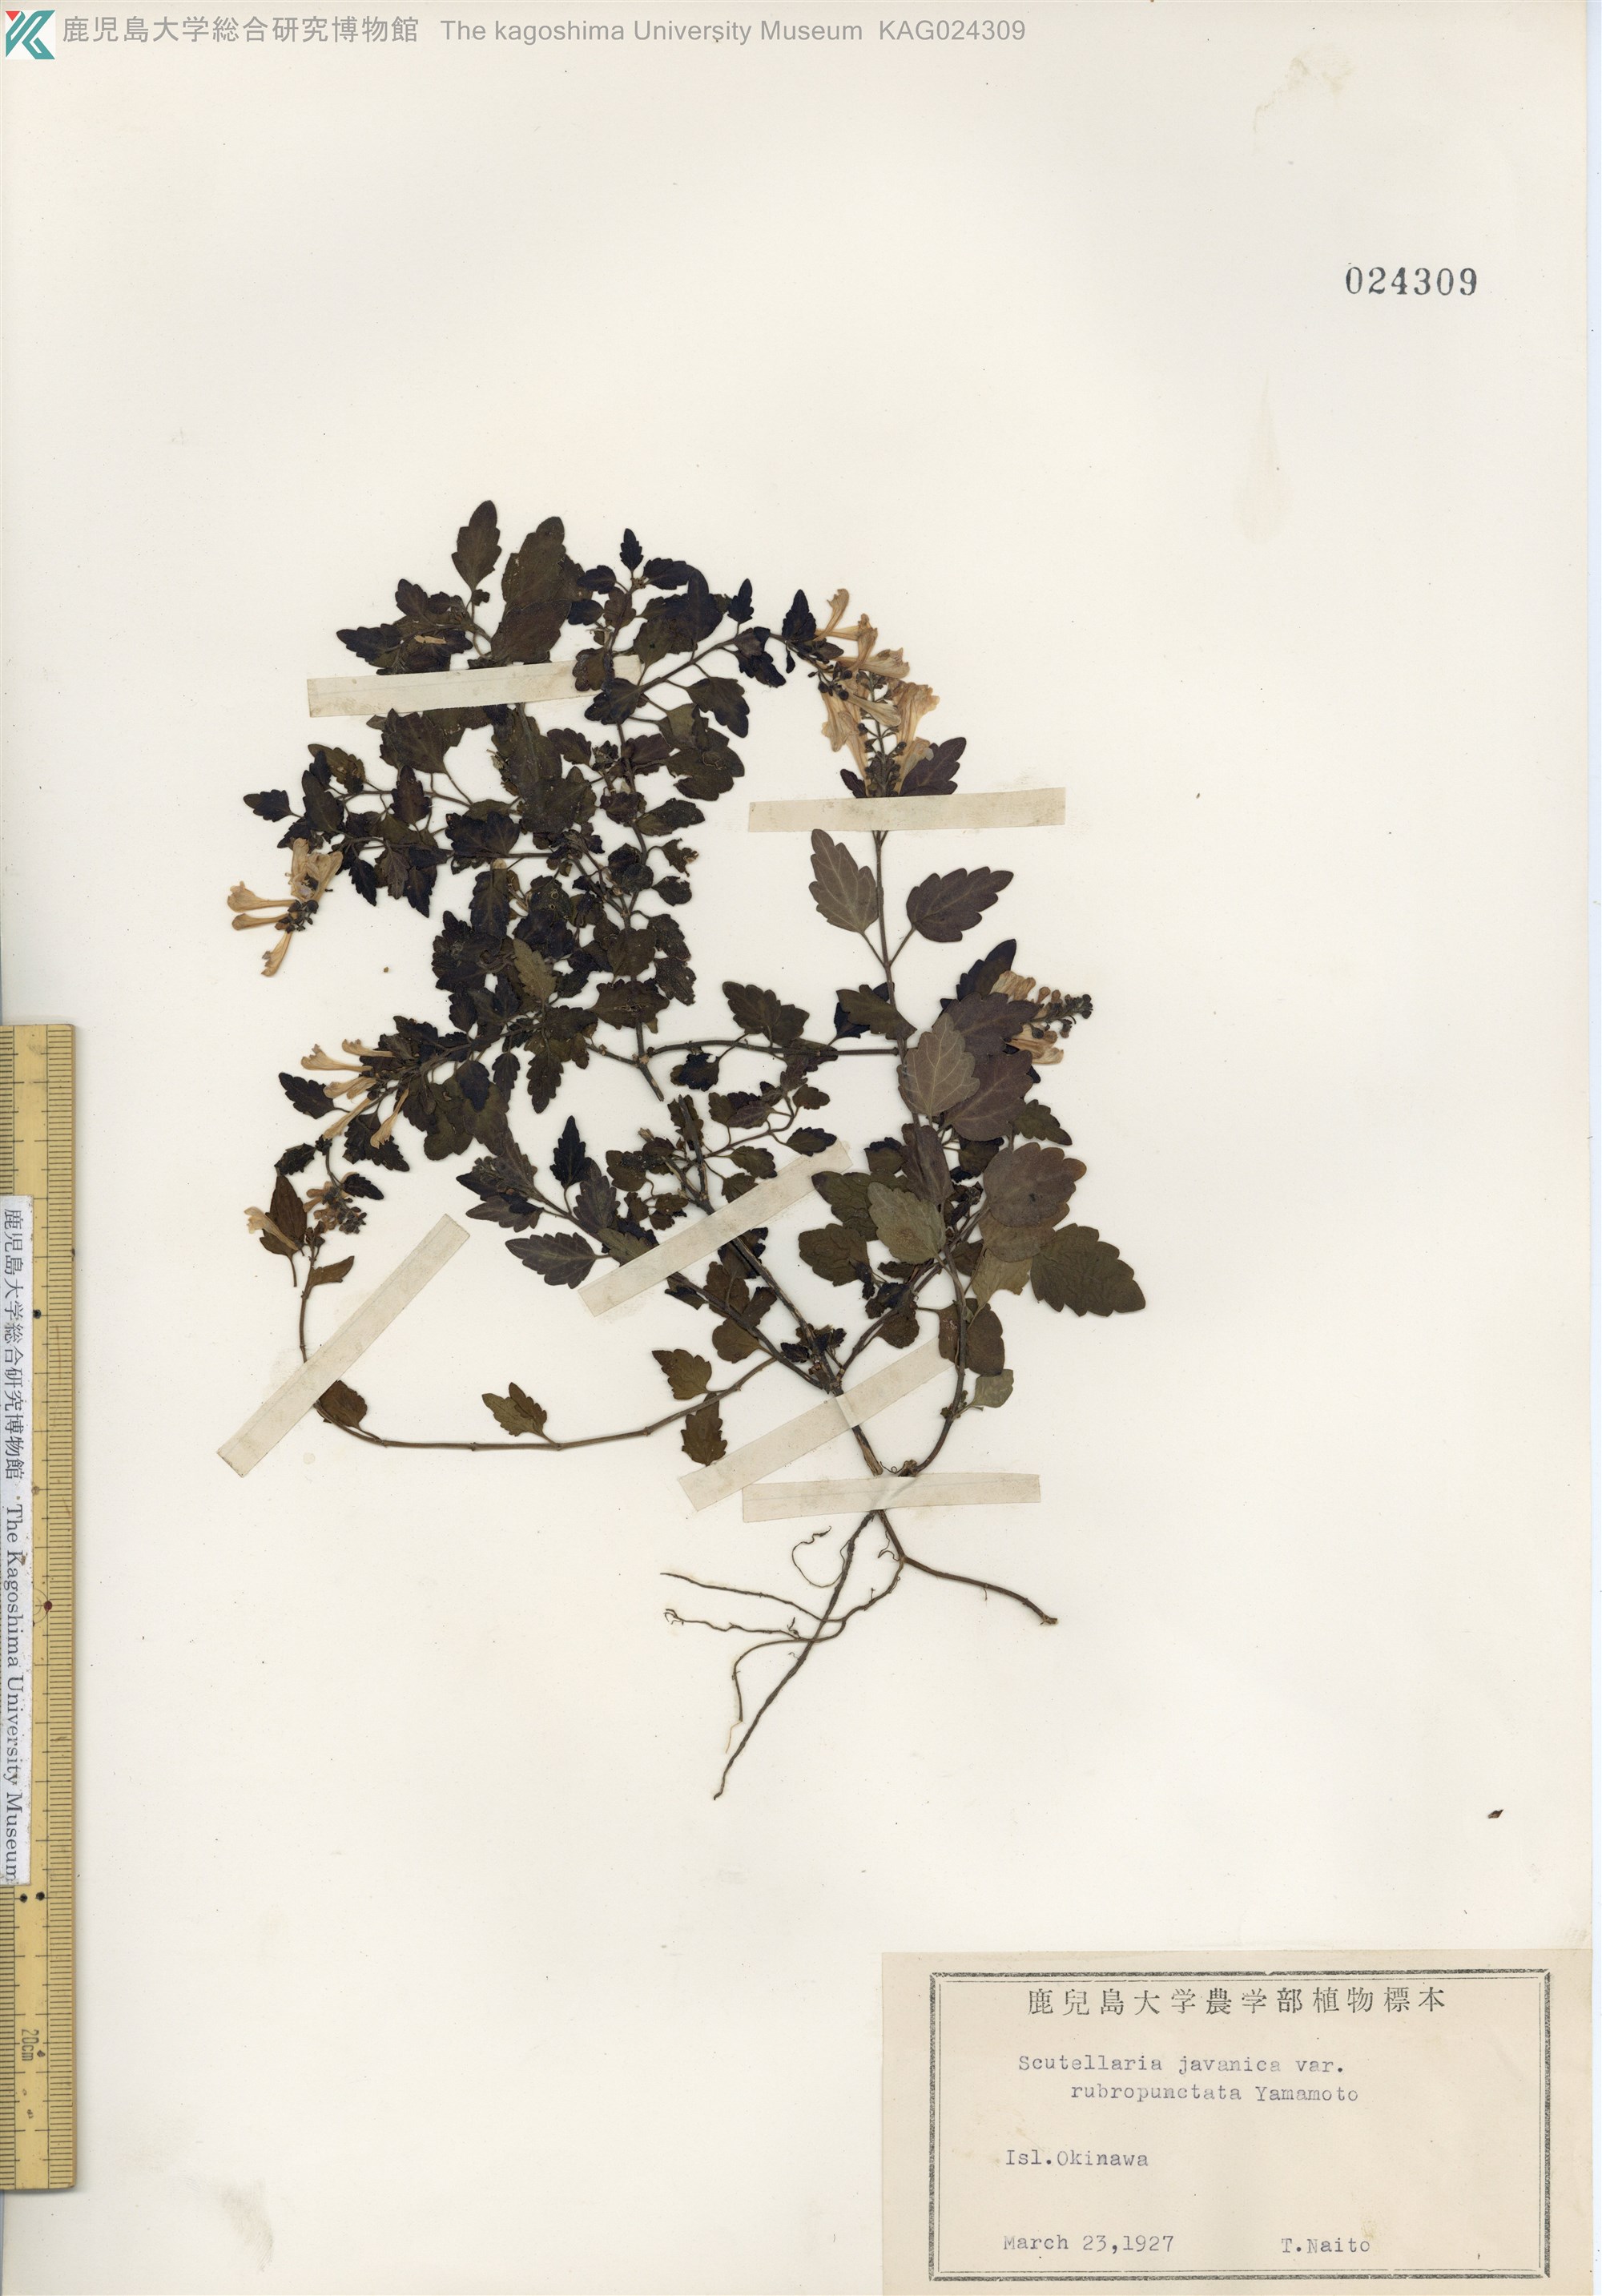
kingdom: Plantae
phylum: Tracheophyta
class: Magnoliopsida
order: Lamiales
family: Lamiaceae
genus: Scutellaria
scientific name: Scutellaria rubropunctata
